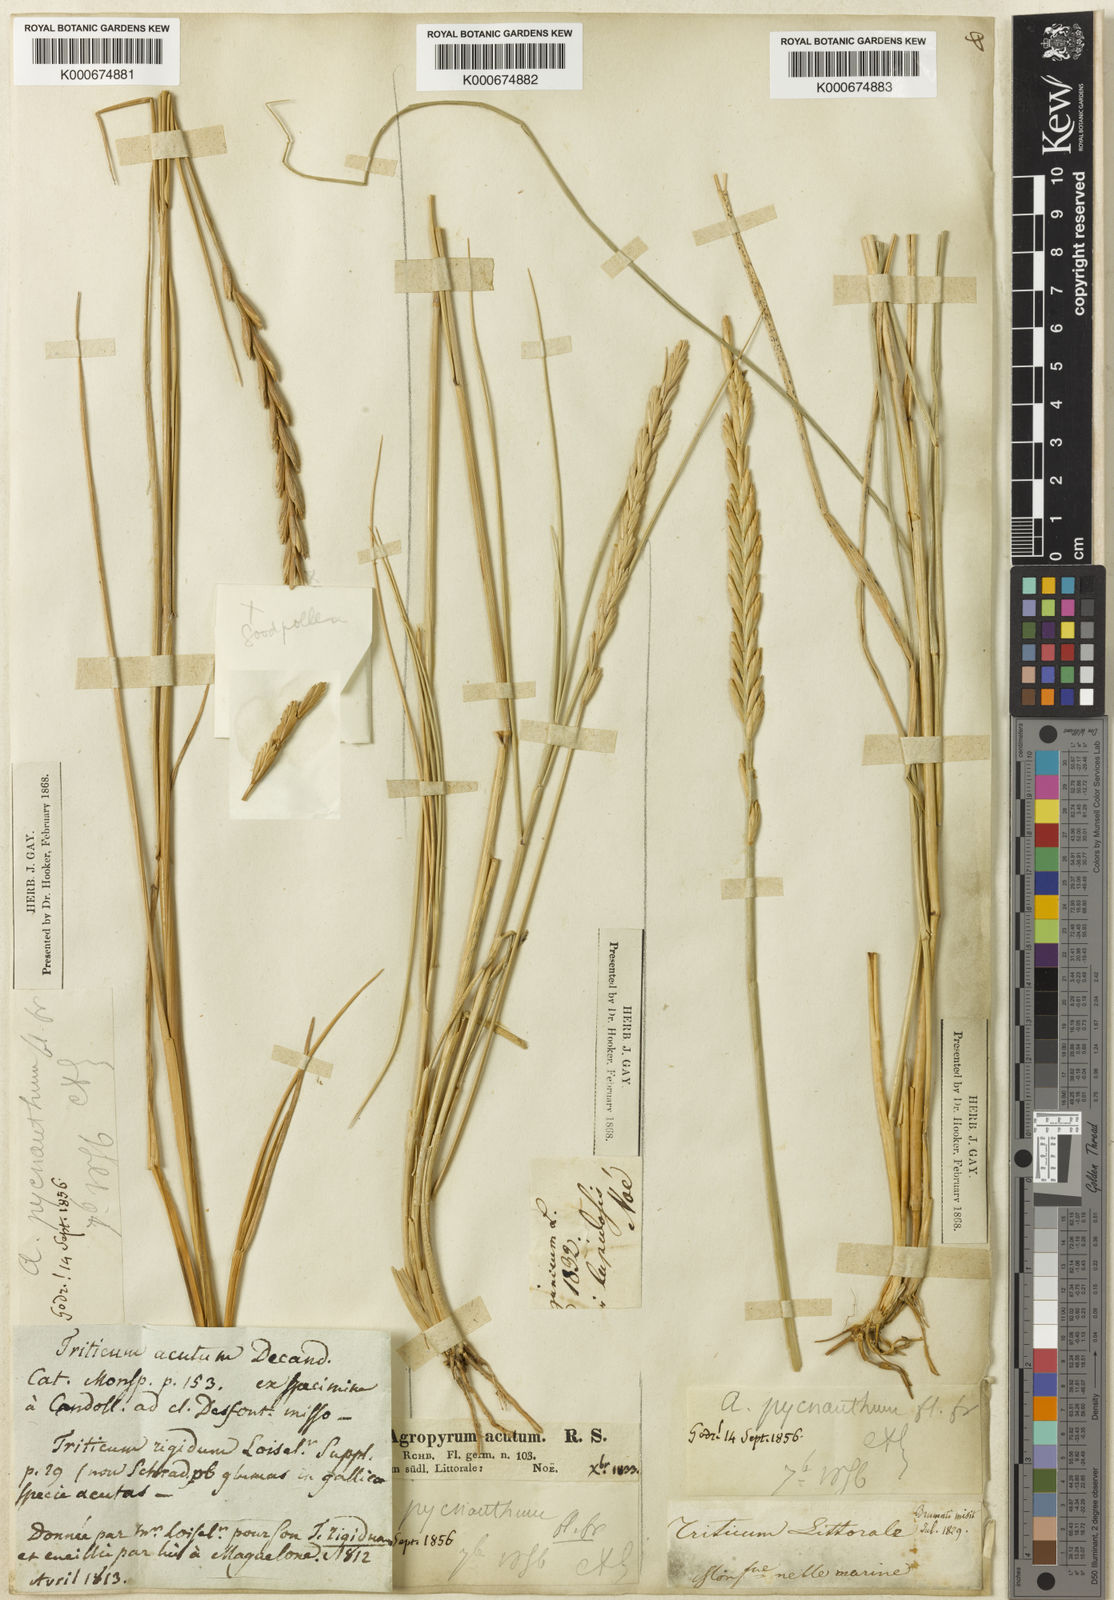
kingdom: Plantae
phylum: Tracheophyta
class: Liliopsida
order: Poales
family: Poaceae
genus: Elymus
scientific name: Elymus
